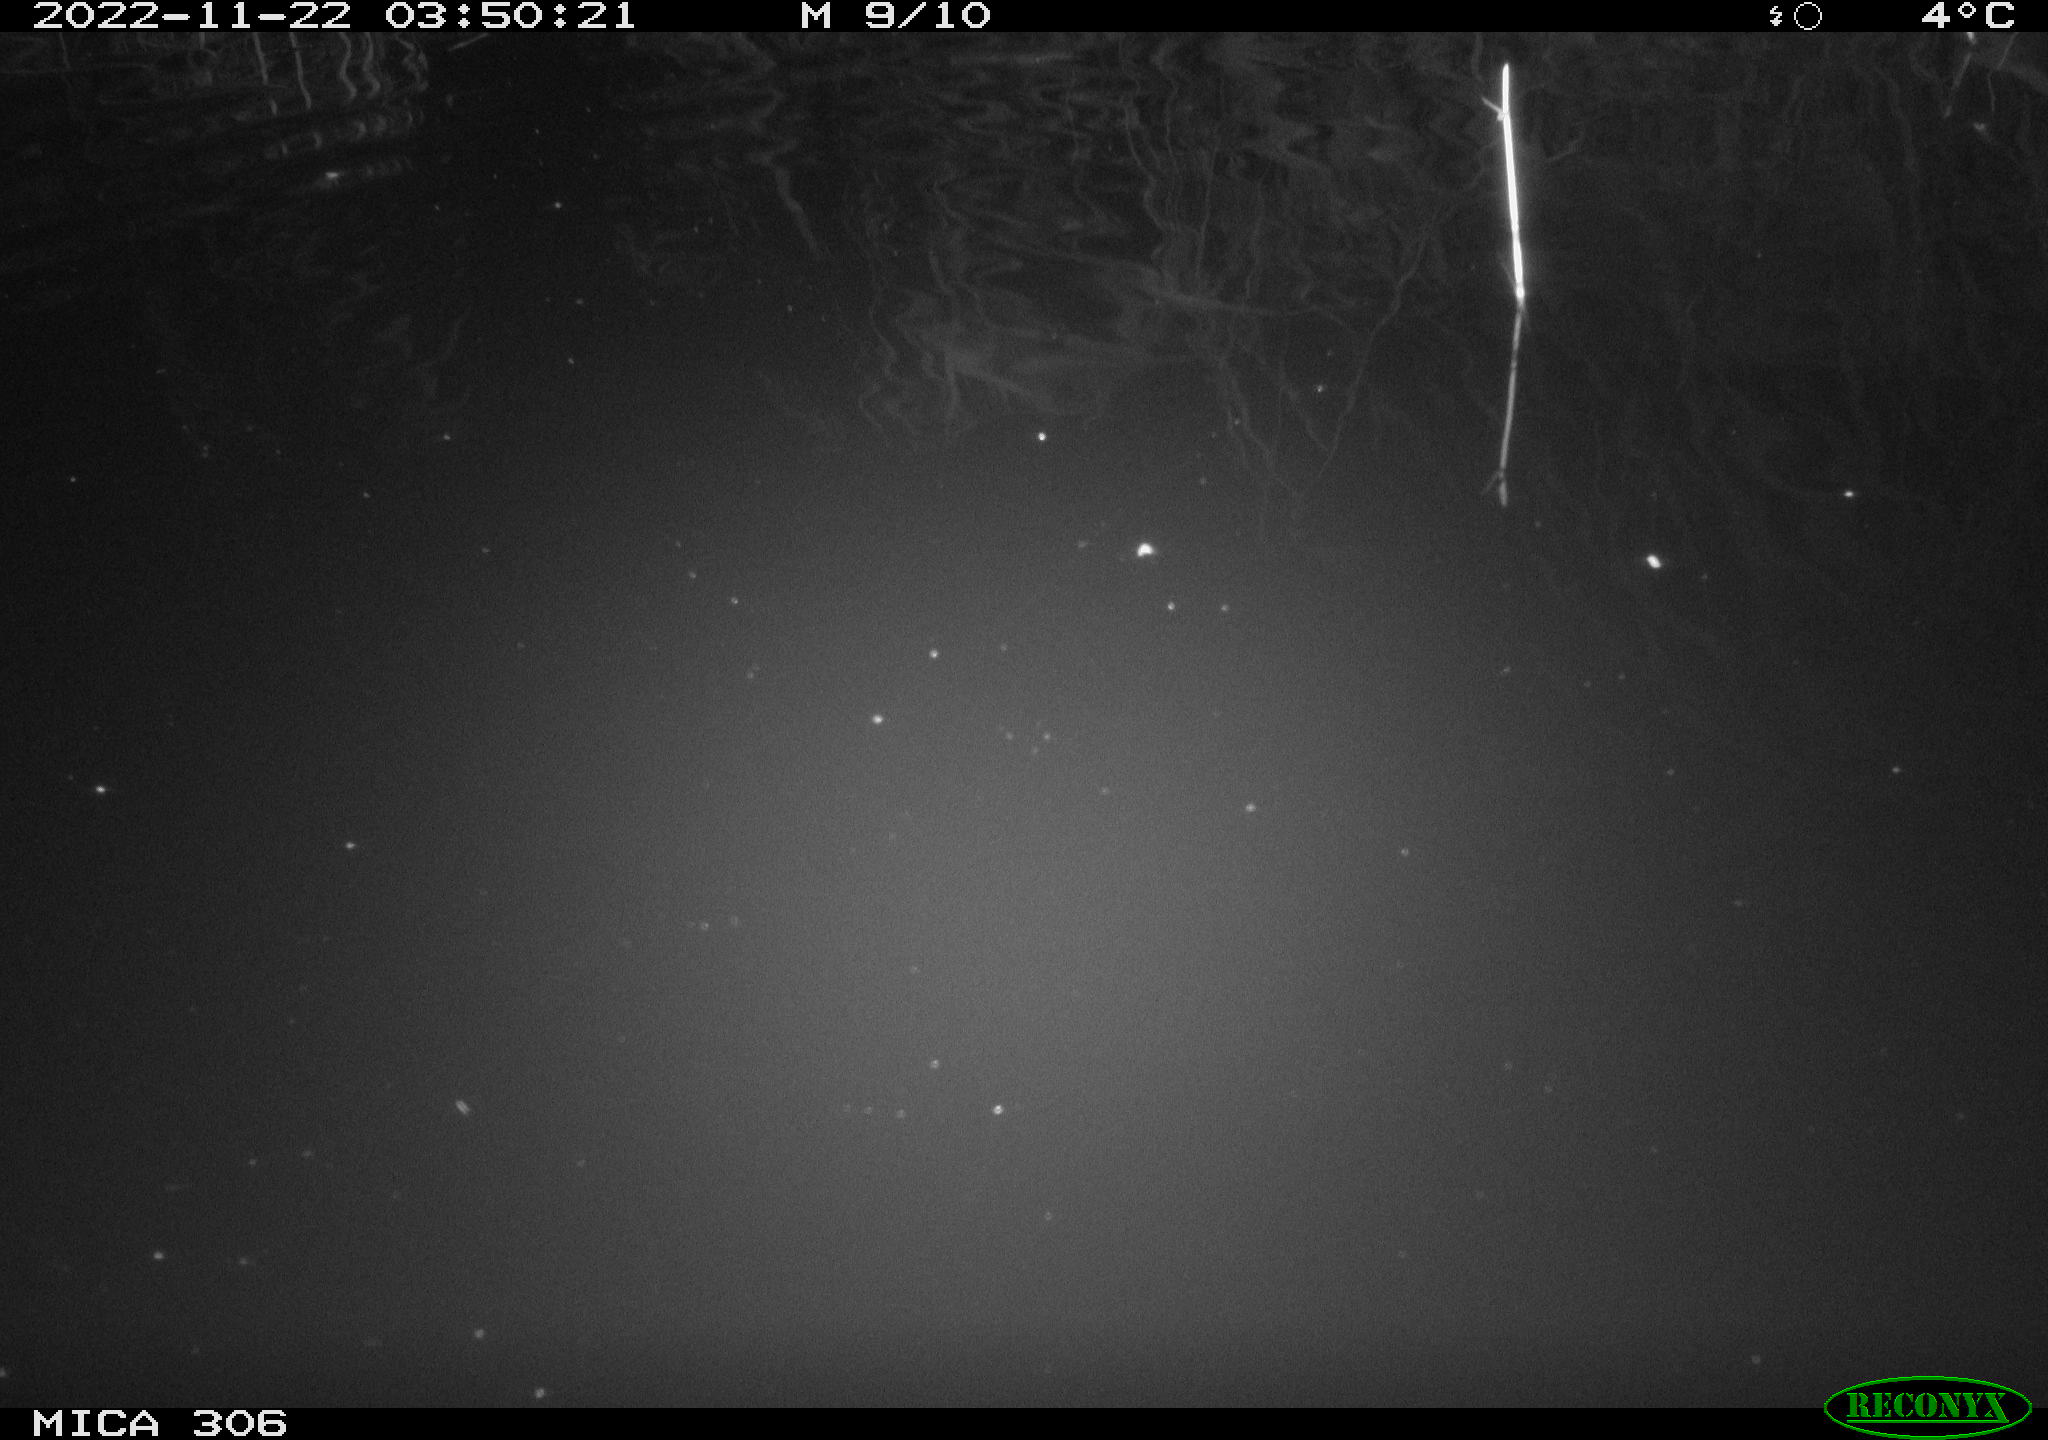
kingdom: Animalia
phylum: Chordata
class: Mammalia
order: Rodentia
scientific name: Rodentia
